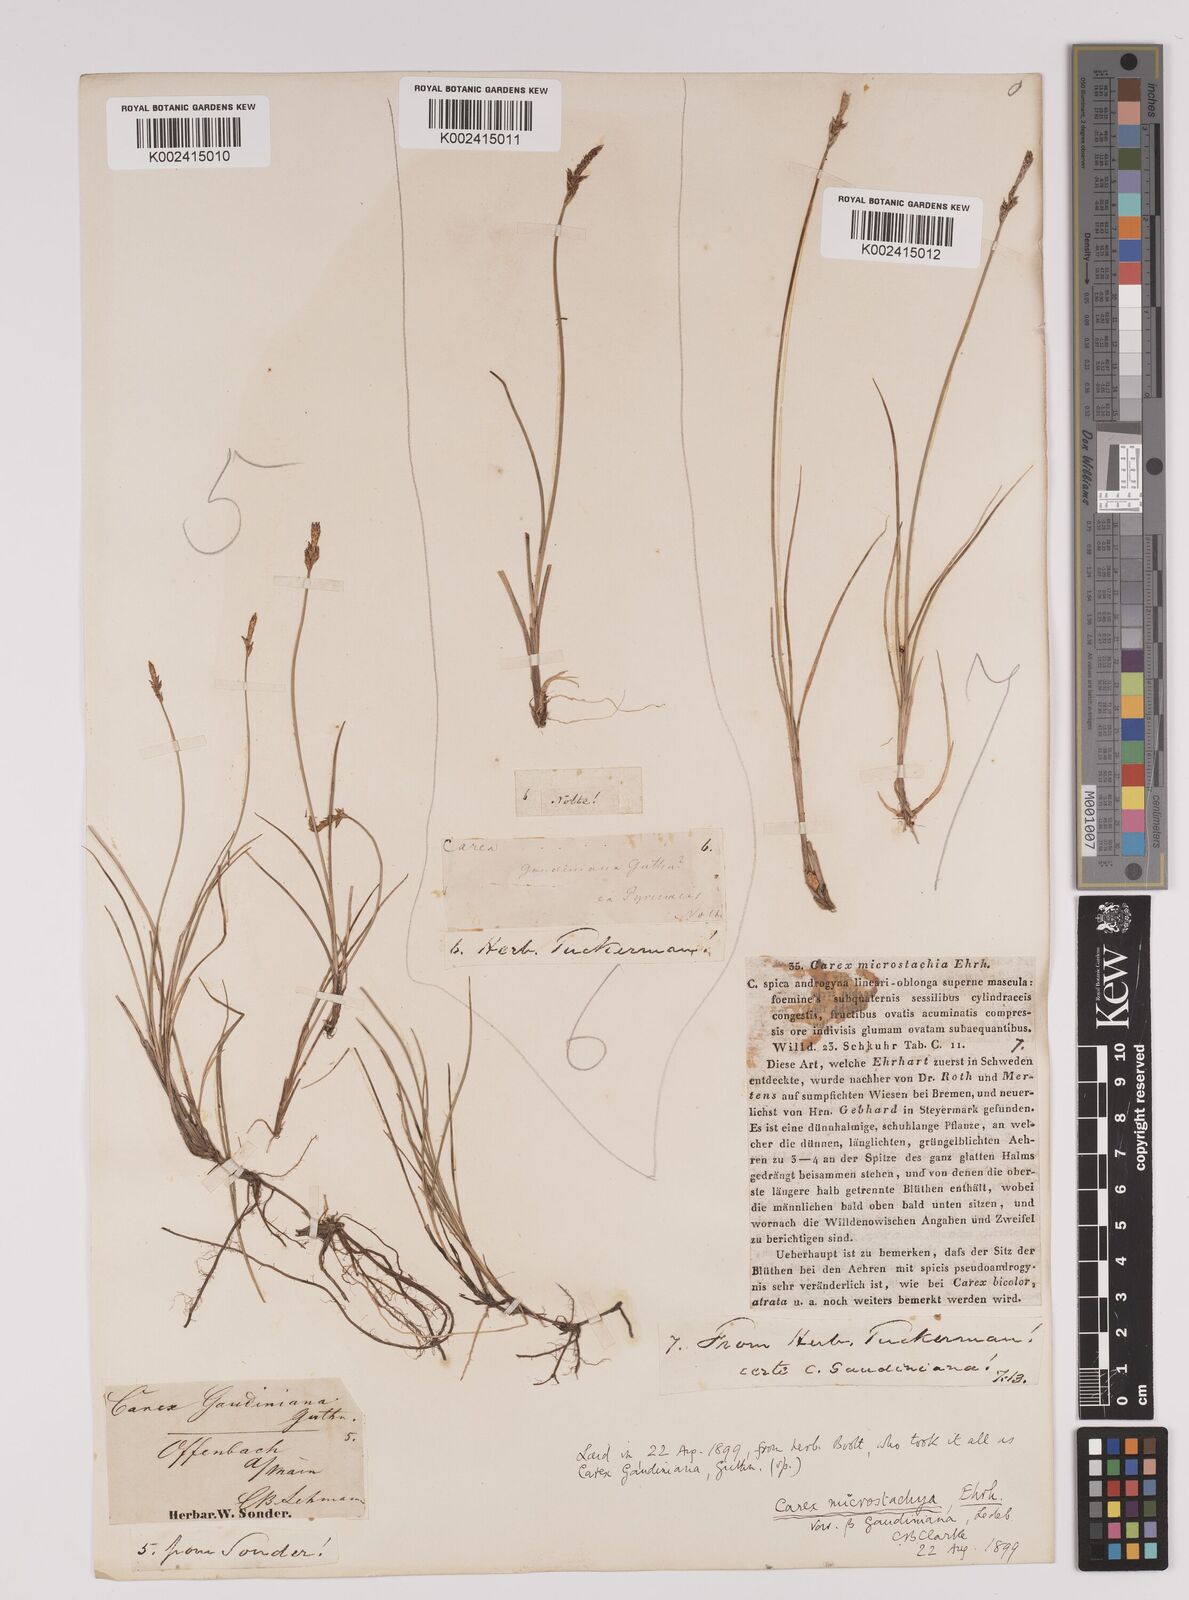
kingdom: Plantae
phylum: Tracheophyta
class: Liliopsida
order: Poales
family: Cyperaceae
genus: Carex
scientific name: Carex dioica
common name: Dioecious sedge
